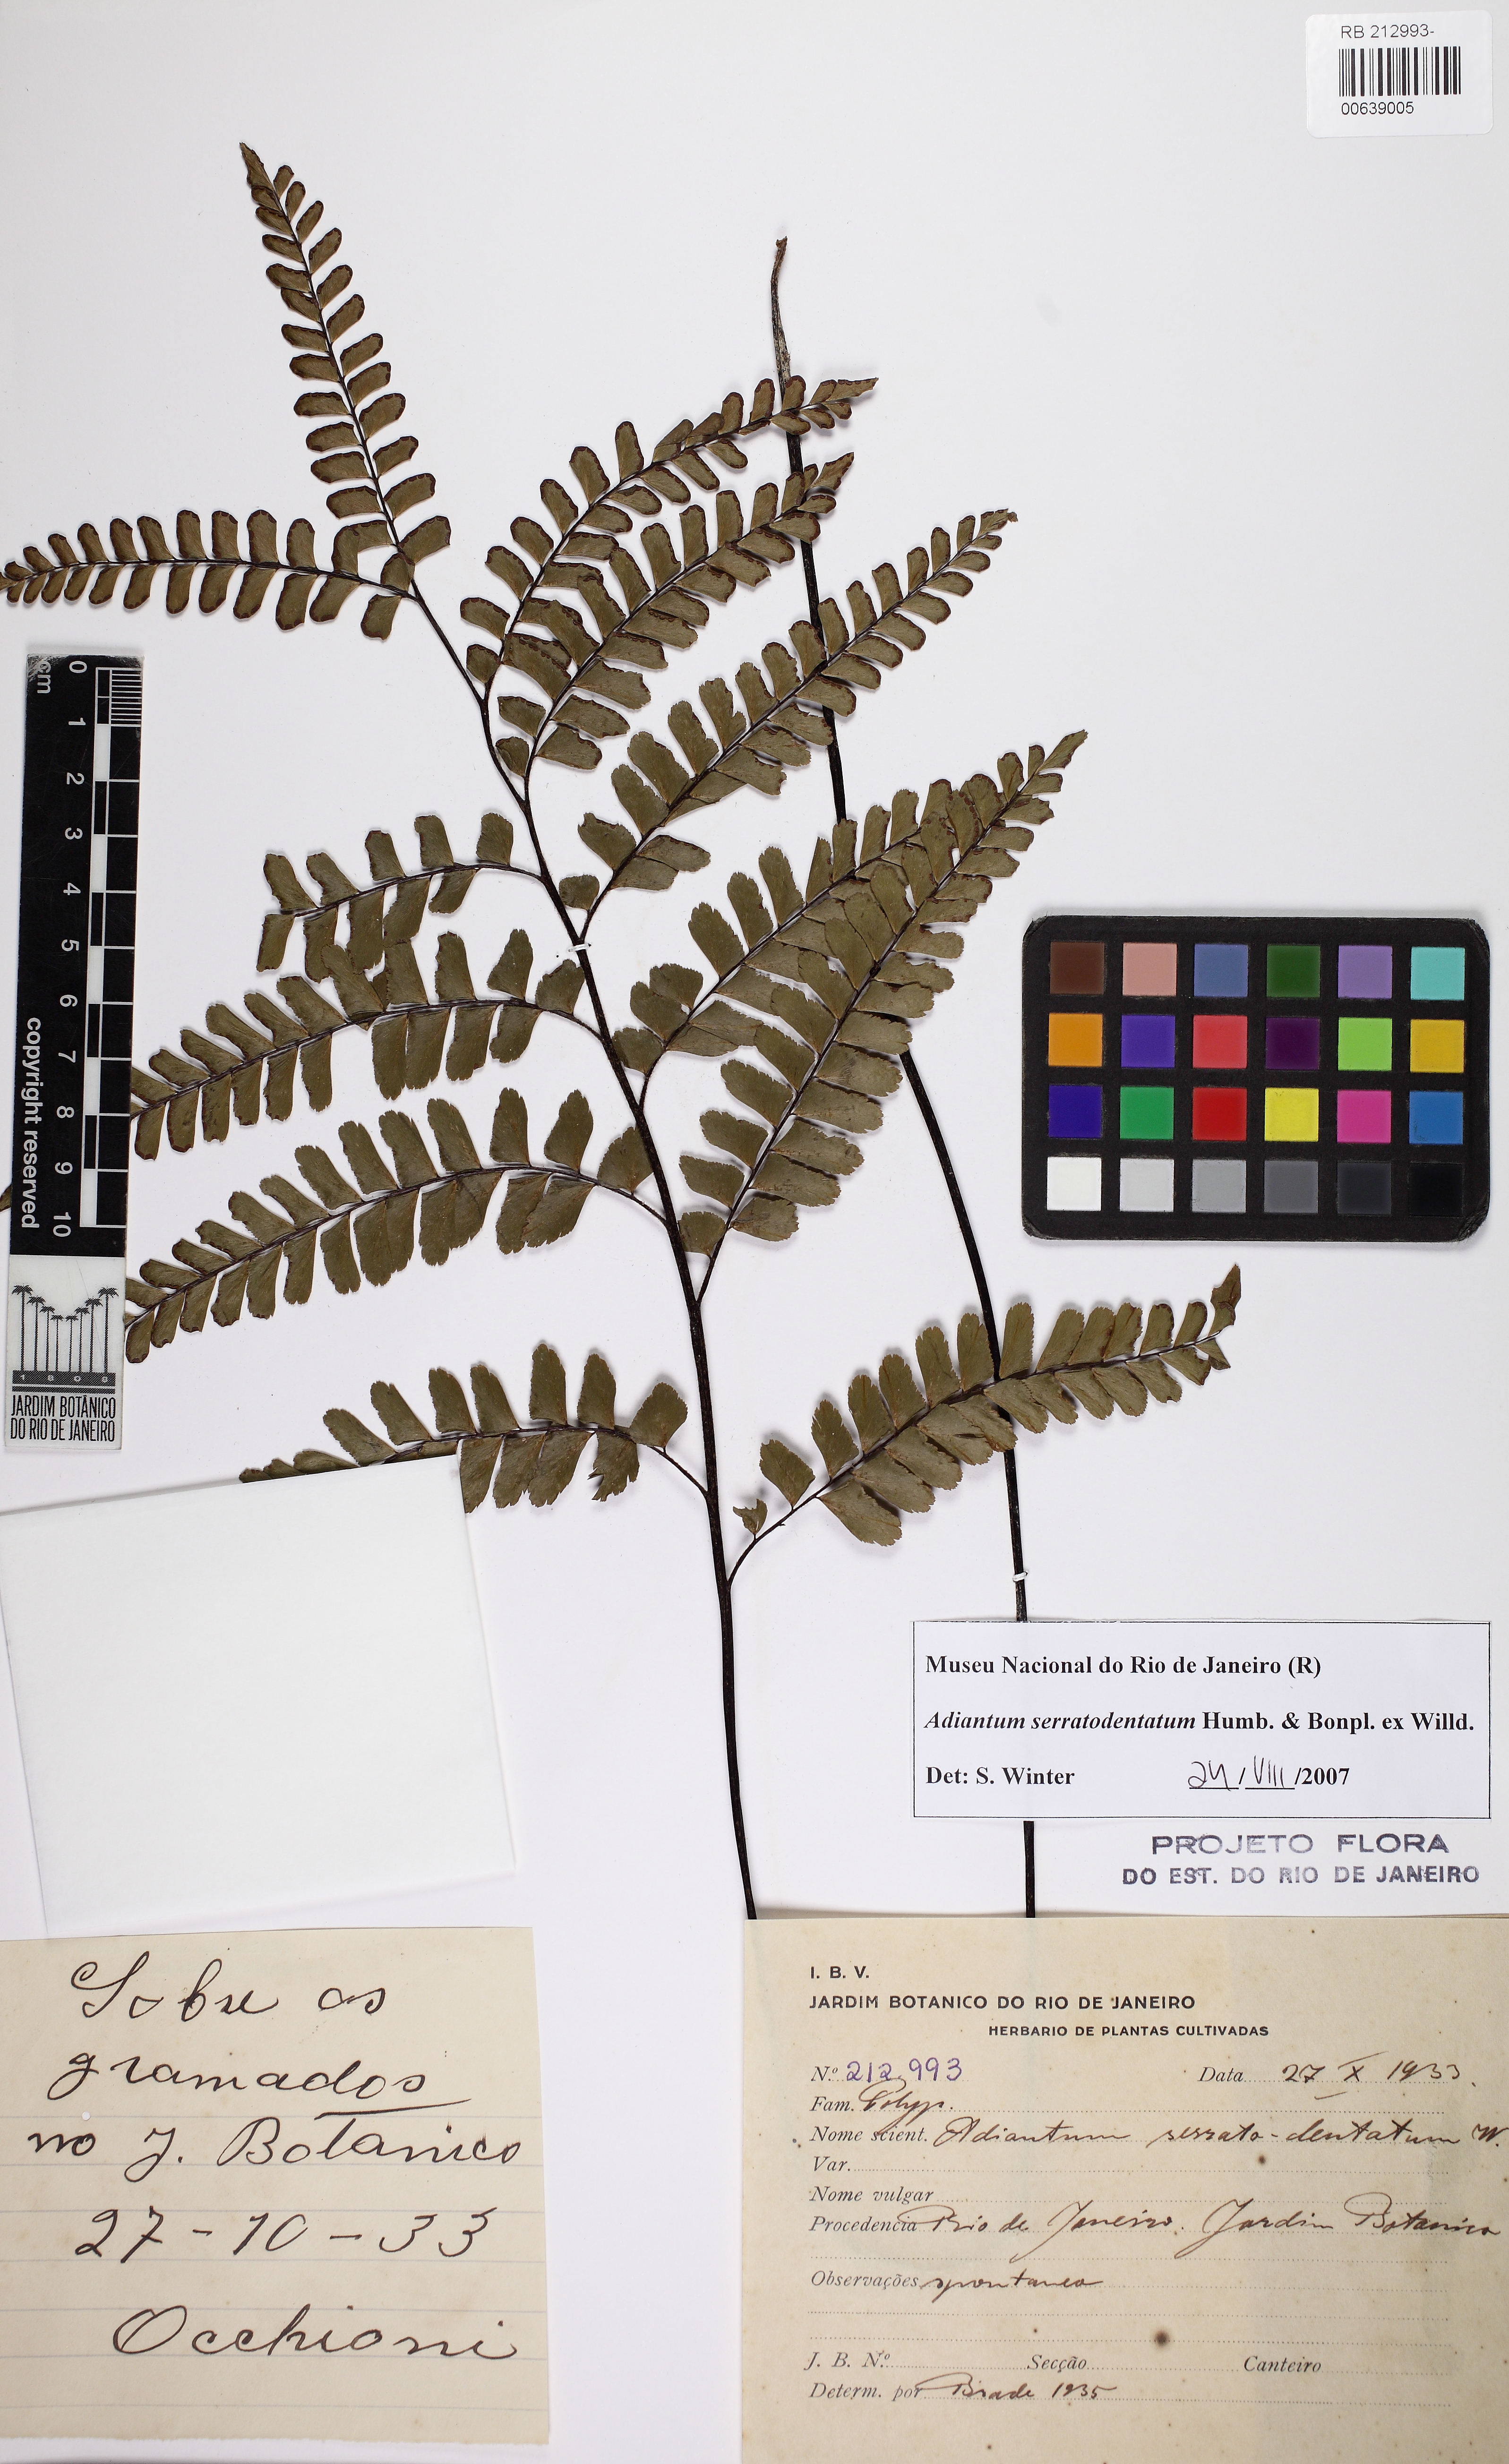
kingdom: Plantae
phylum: Tracheophyta
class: Polypodiopsida
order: Polypodiales
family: Pteridaceae
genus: Adiantum
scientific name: Adiantum serratodentatum
